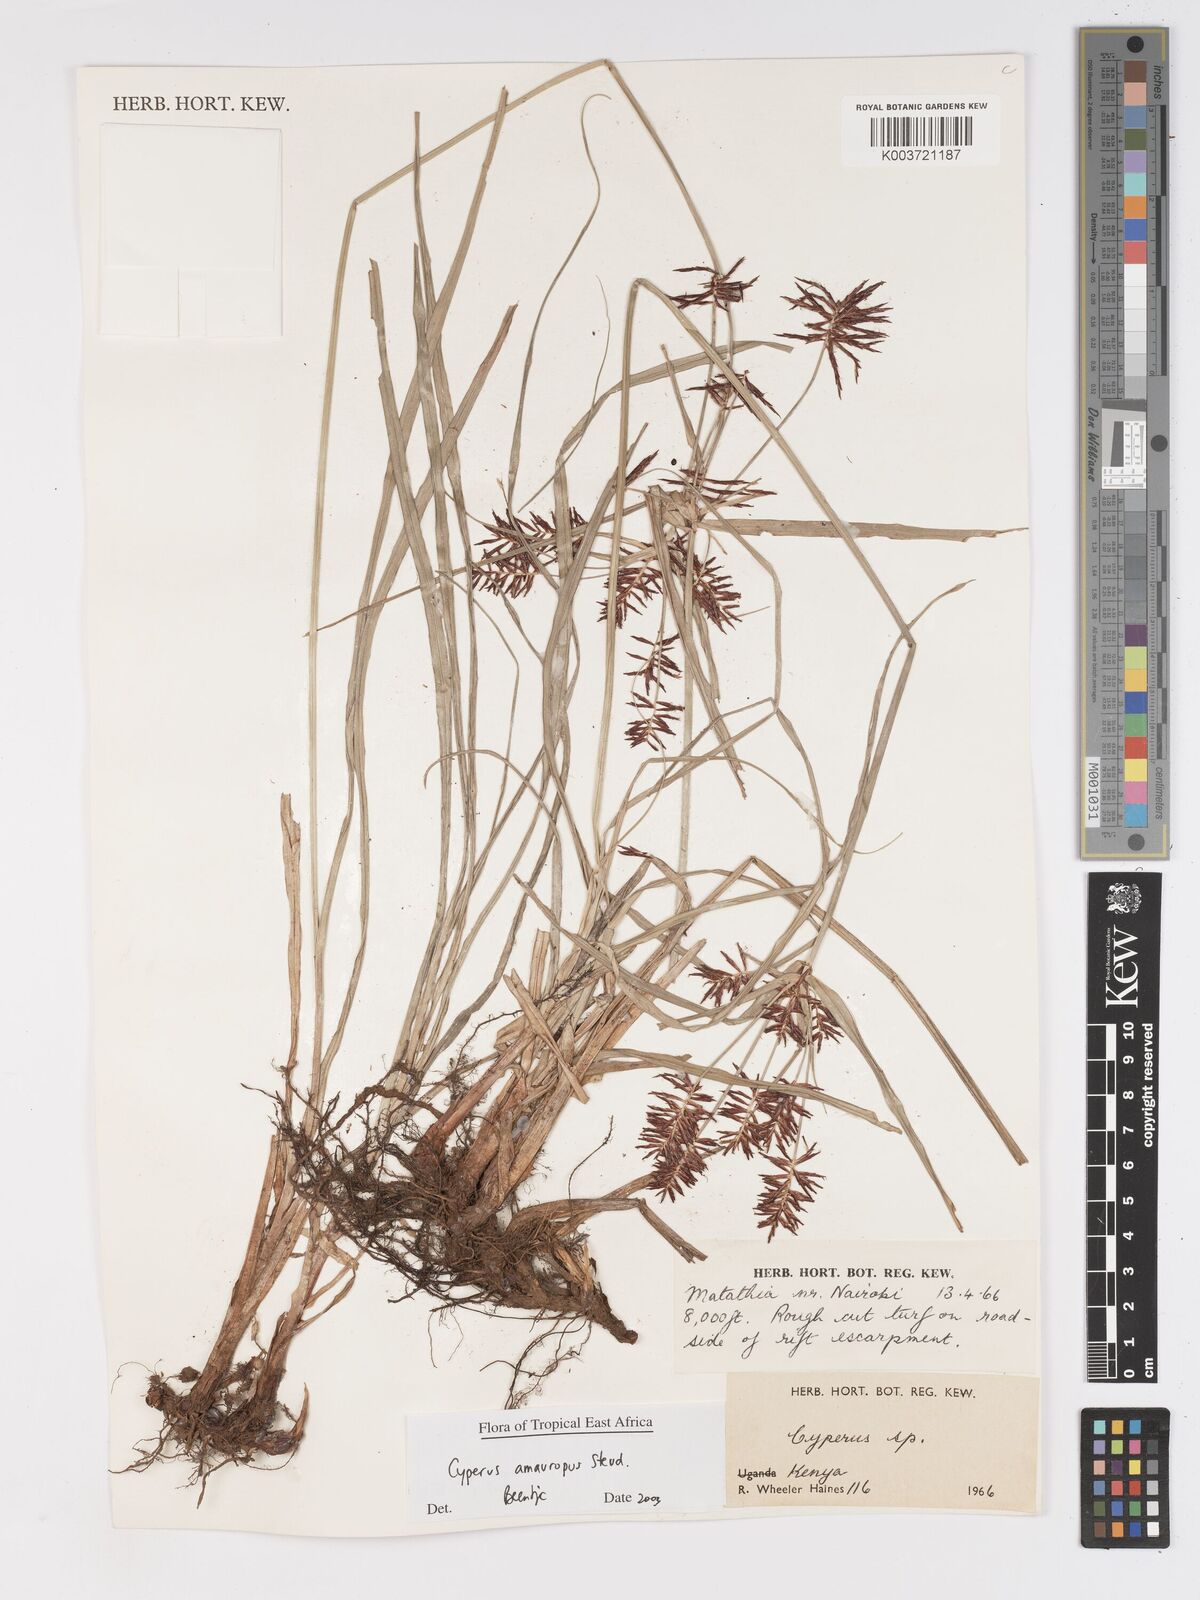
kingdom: Plantae
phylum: Tracheophyta
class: Liliopsida
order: Poales
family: Cyperaceae
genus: Cyperus
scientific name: Cyperus amauropus
